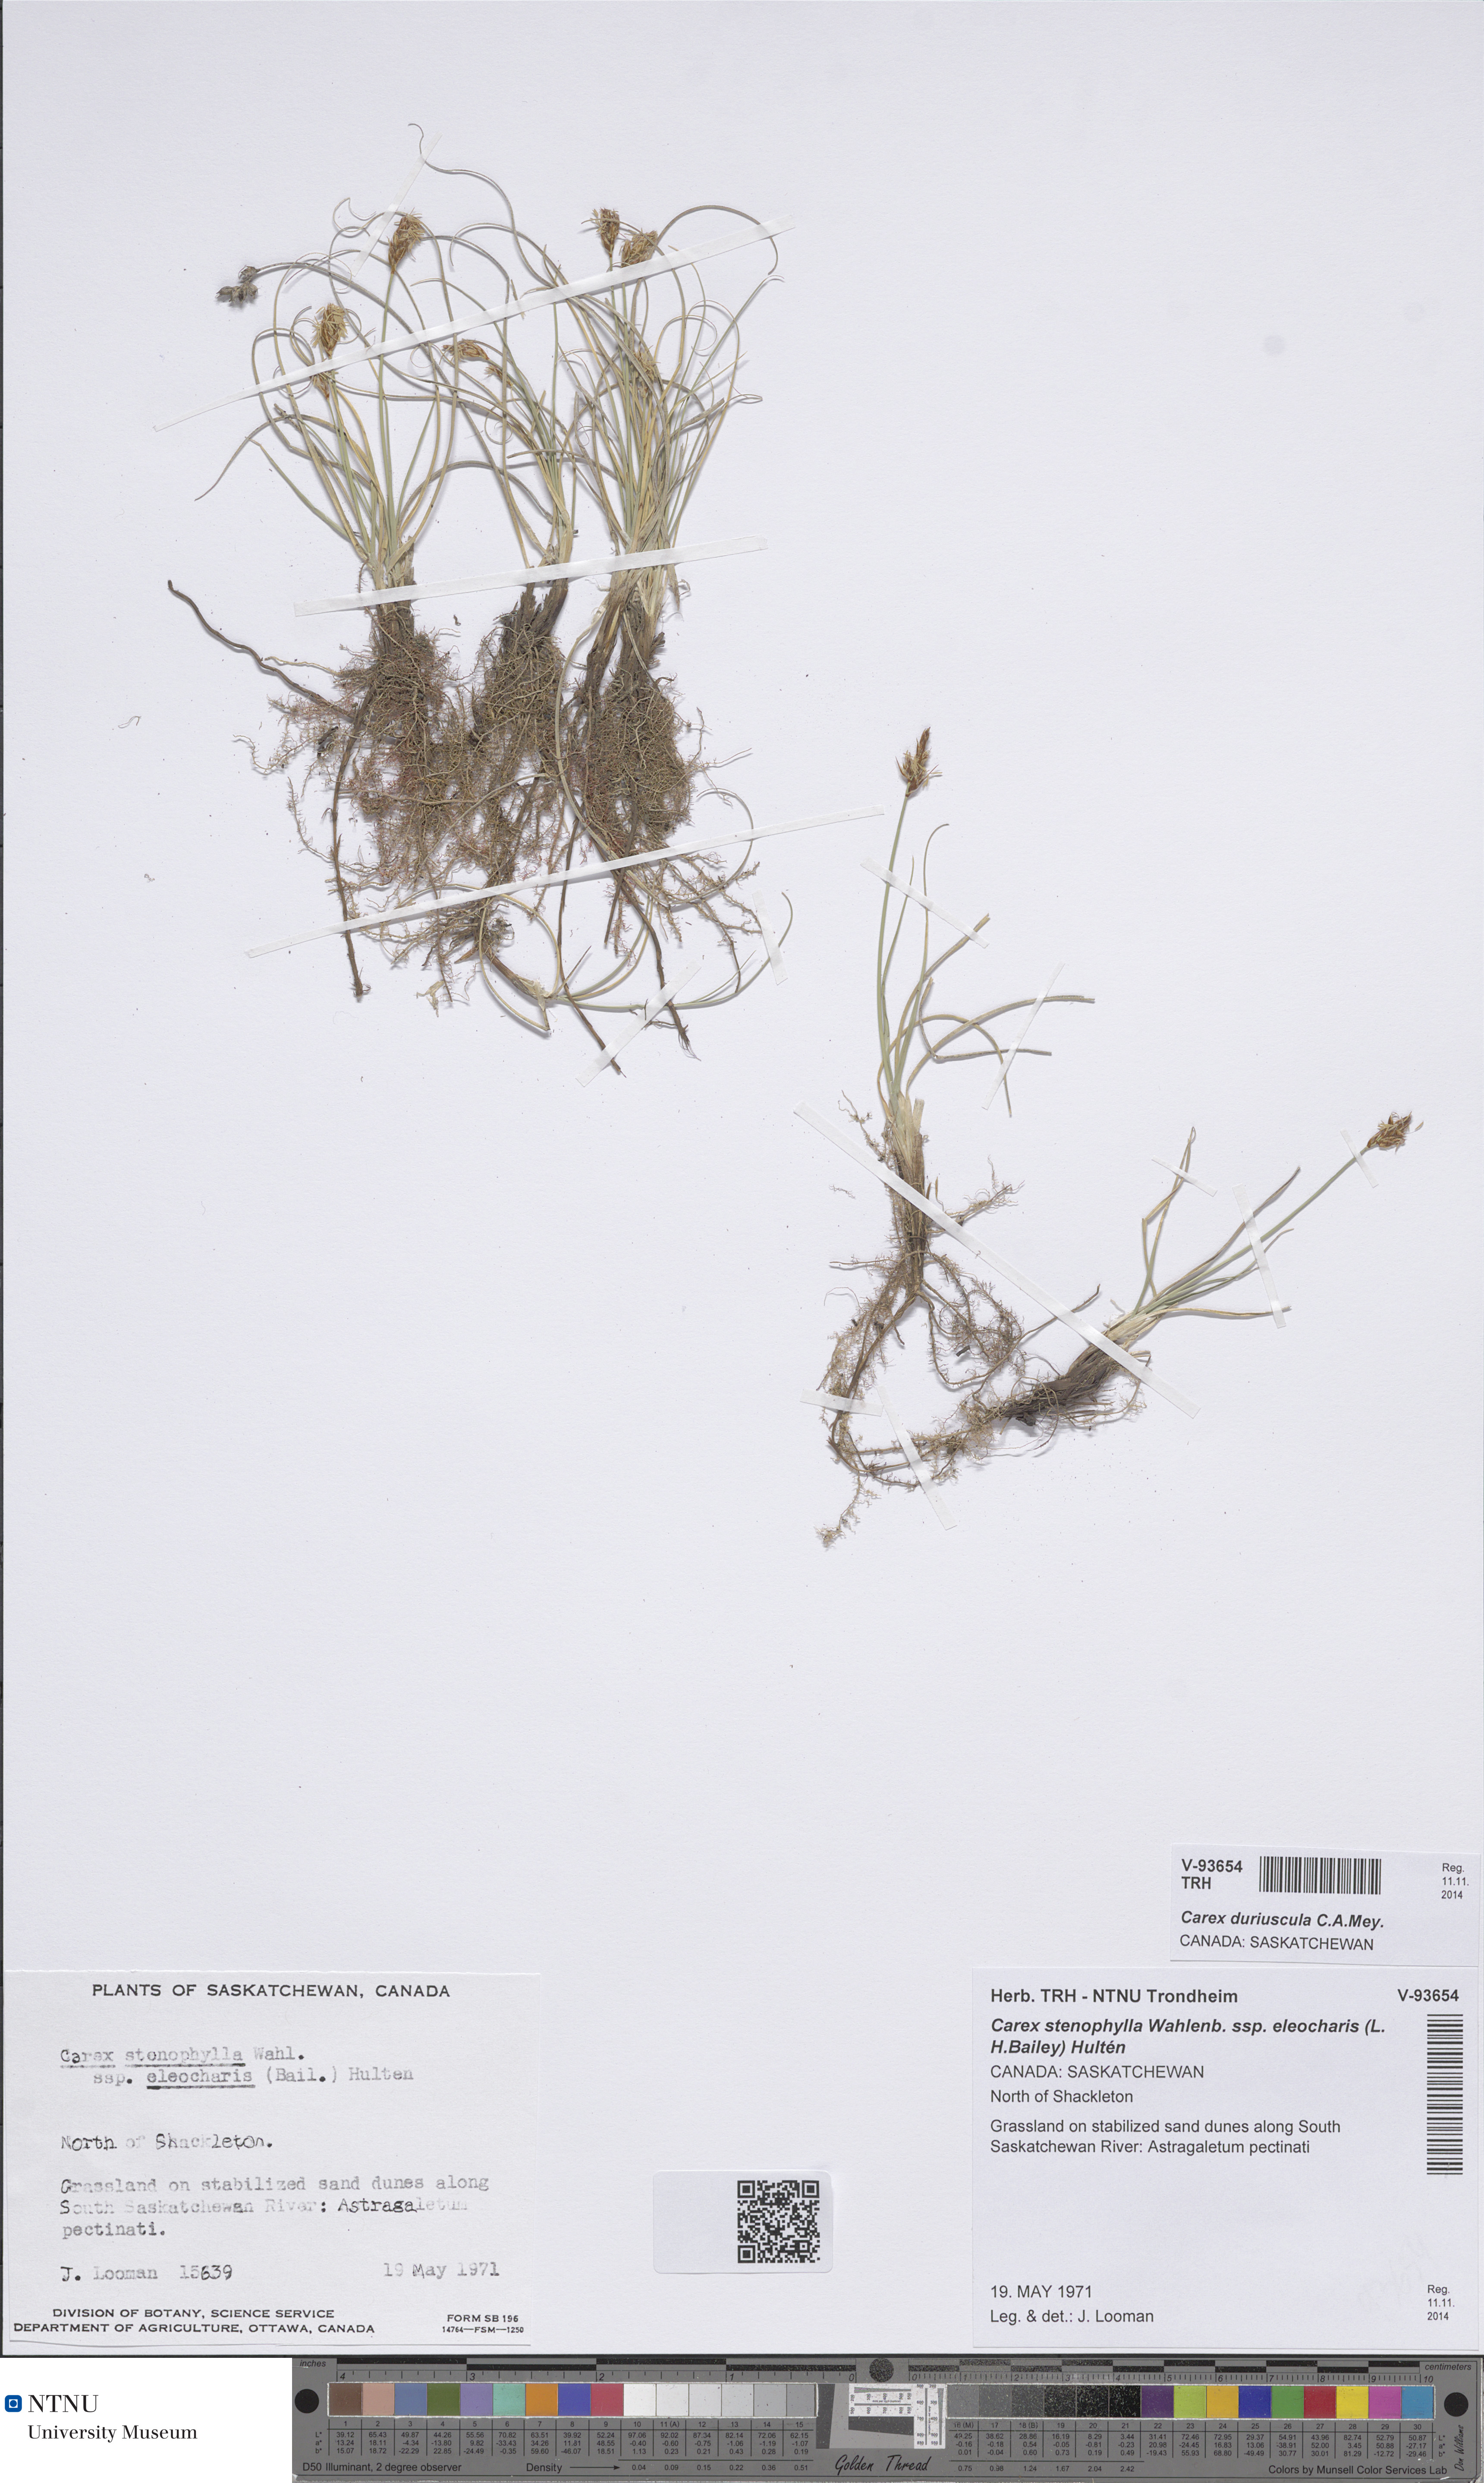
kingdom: Plantae
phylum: Tracheophyta
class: Liliopsida
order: Poales
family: Cyperaceae
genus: Carex
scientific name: Carex duriuscula
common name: Involute-leaved sedge
